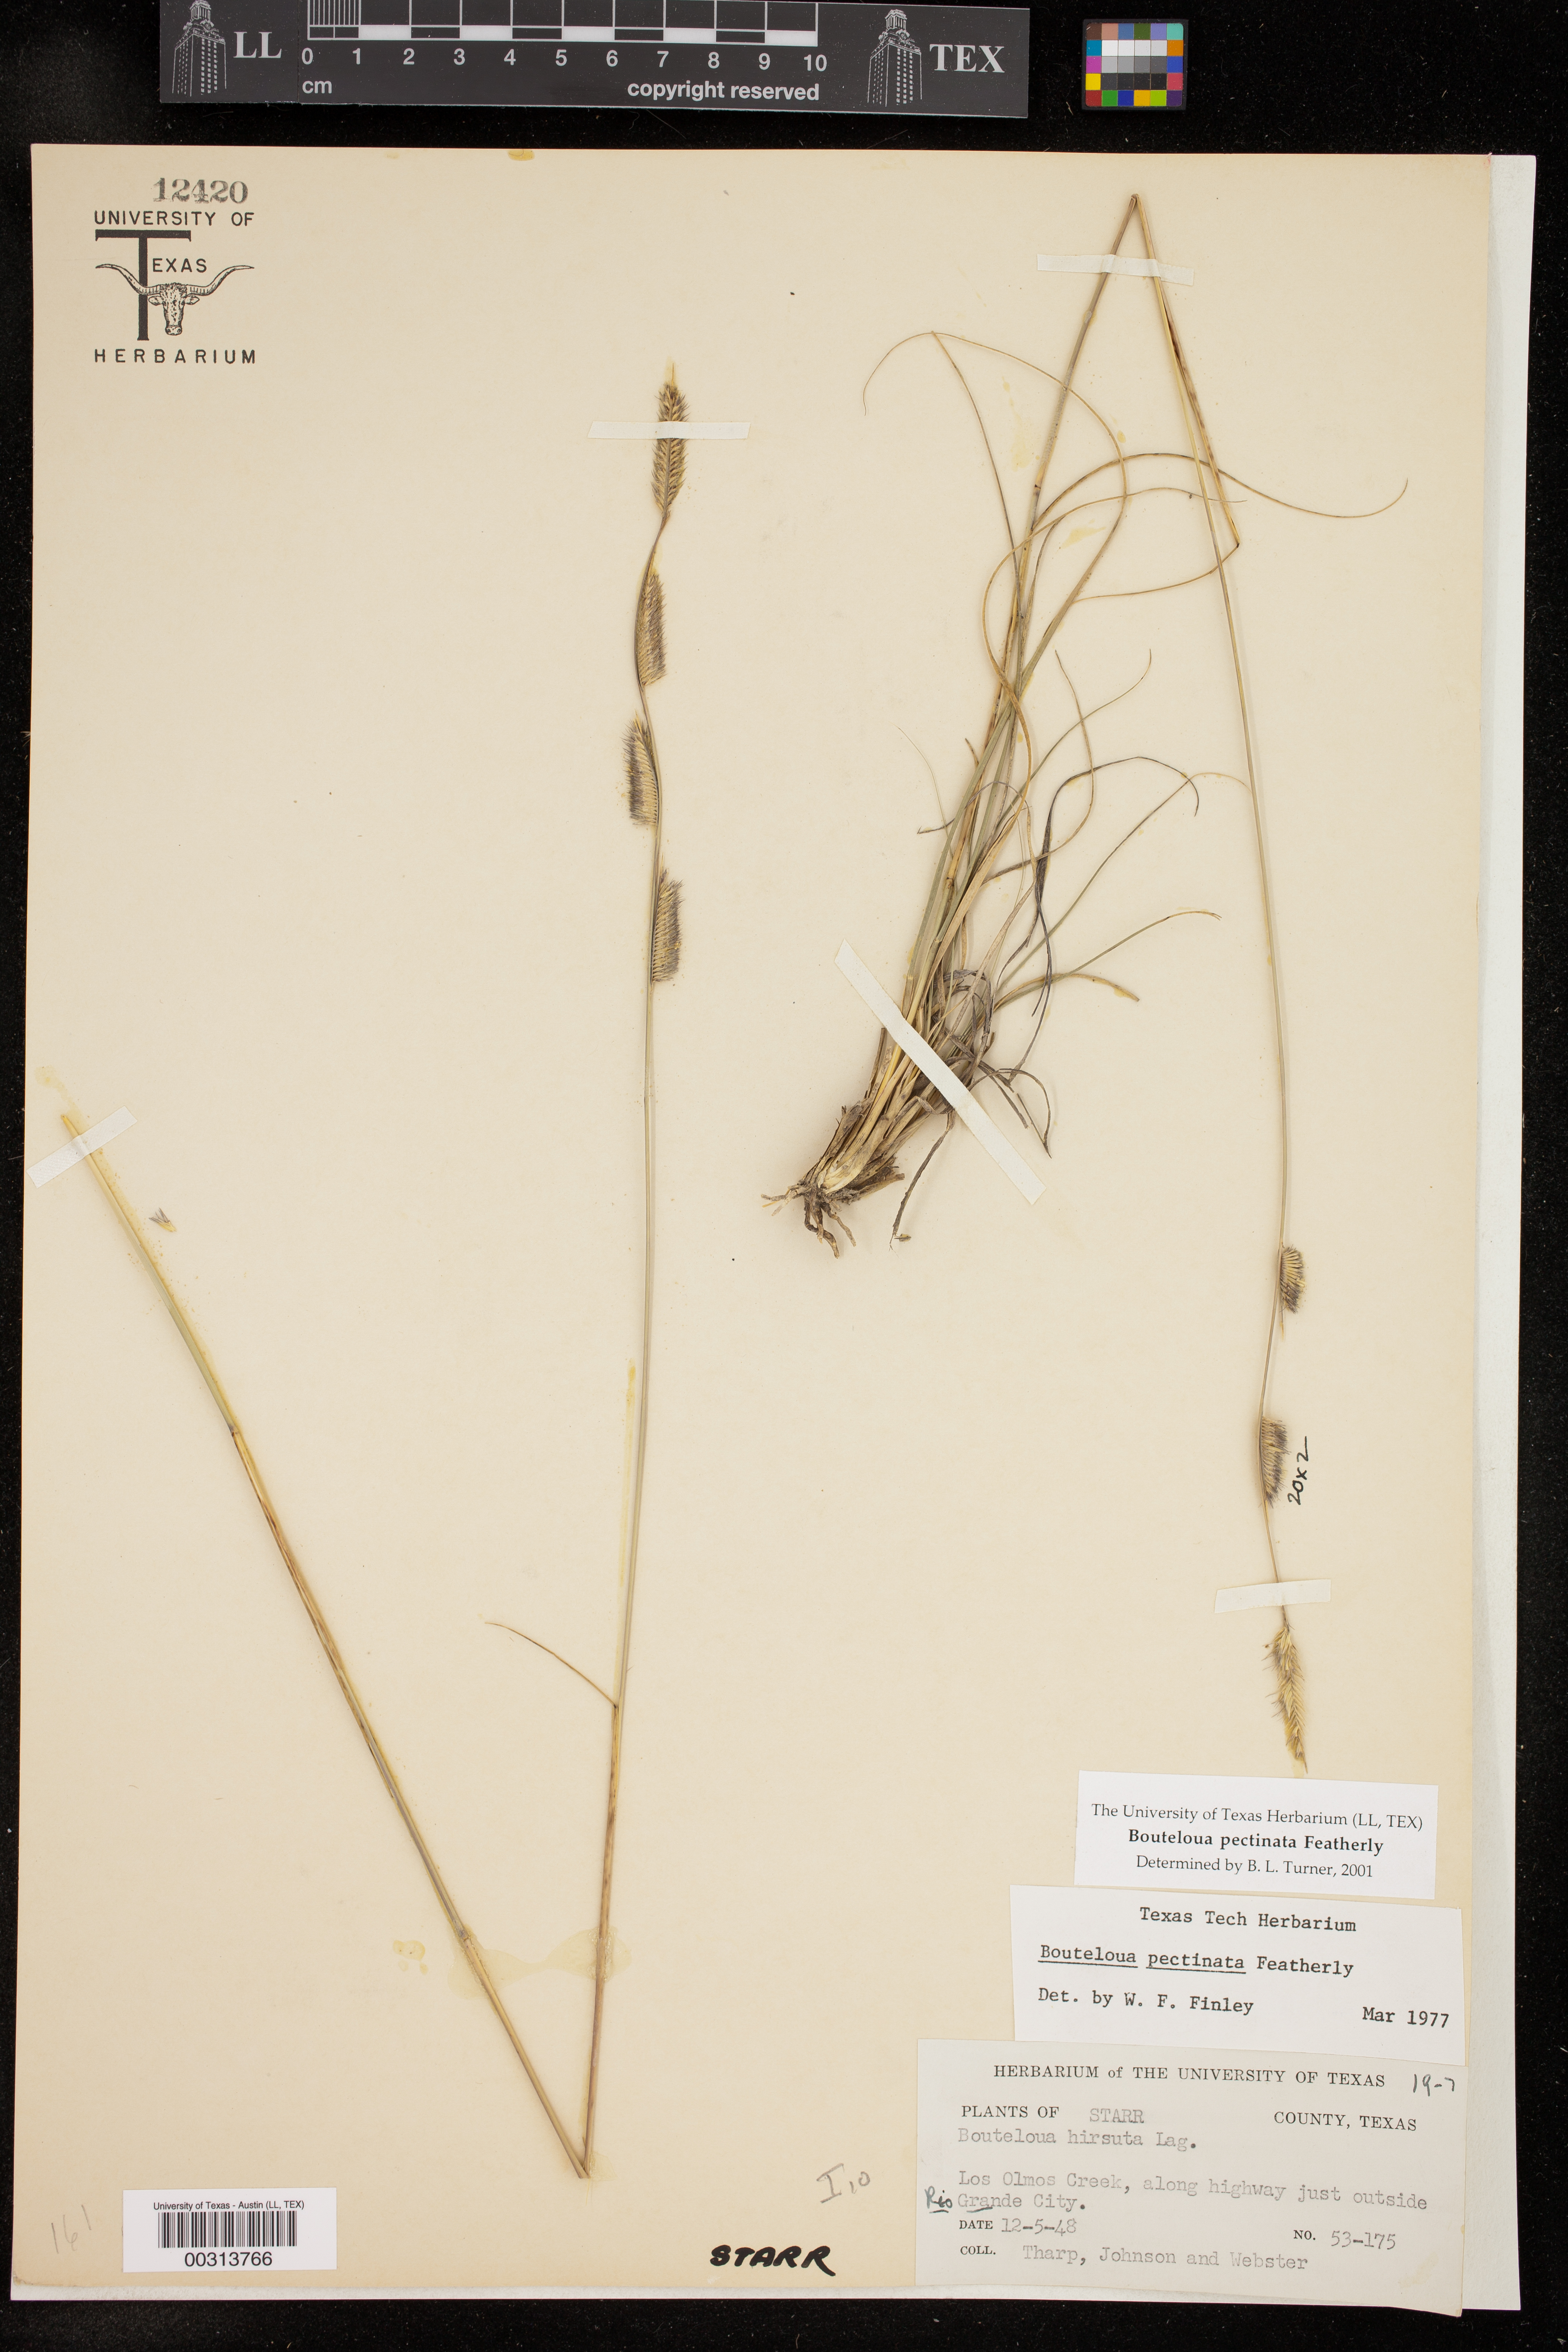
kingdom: Plantae
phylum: Tracheophyta
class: Liliopsida
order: Poales
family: Poaceae
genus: Bouteloua
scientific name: Bouteloua pectinata
